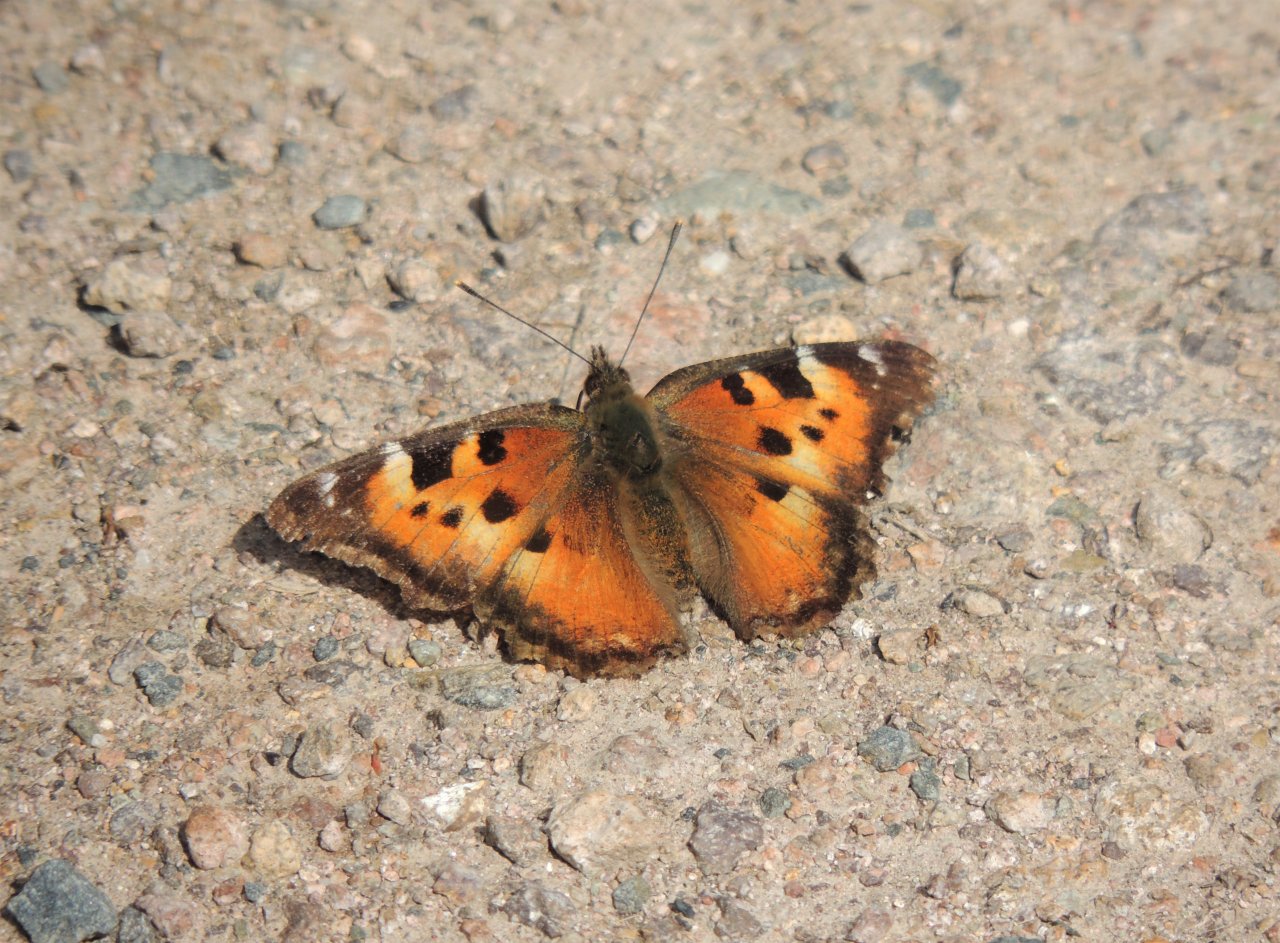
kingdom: Animalia
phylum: Arthropoda
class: Insecta
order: Lepidoptera
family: Nymphalidae
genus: Nymphalis
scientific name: Nymphalis californica
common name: California Tortoiseshell
